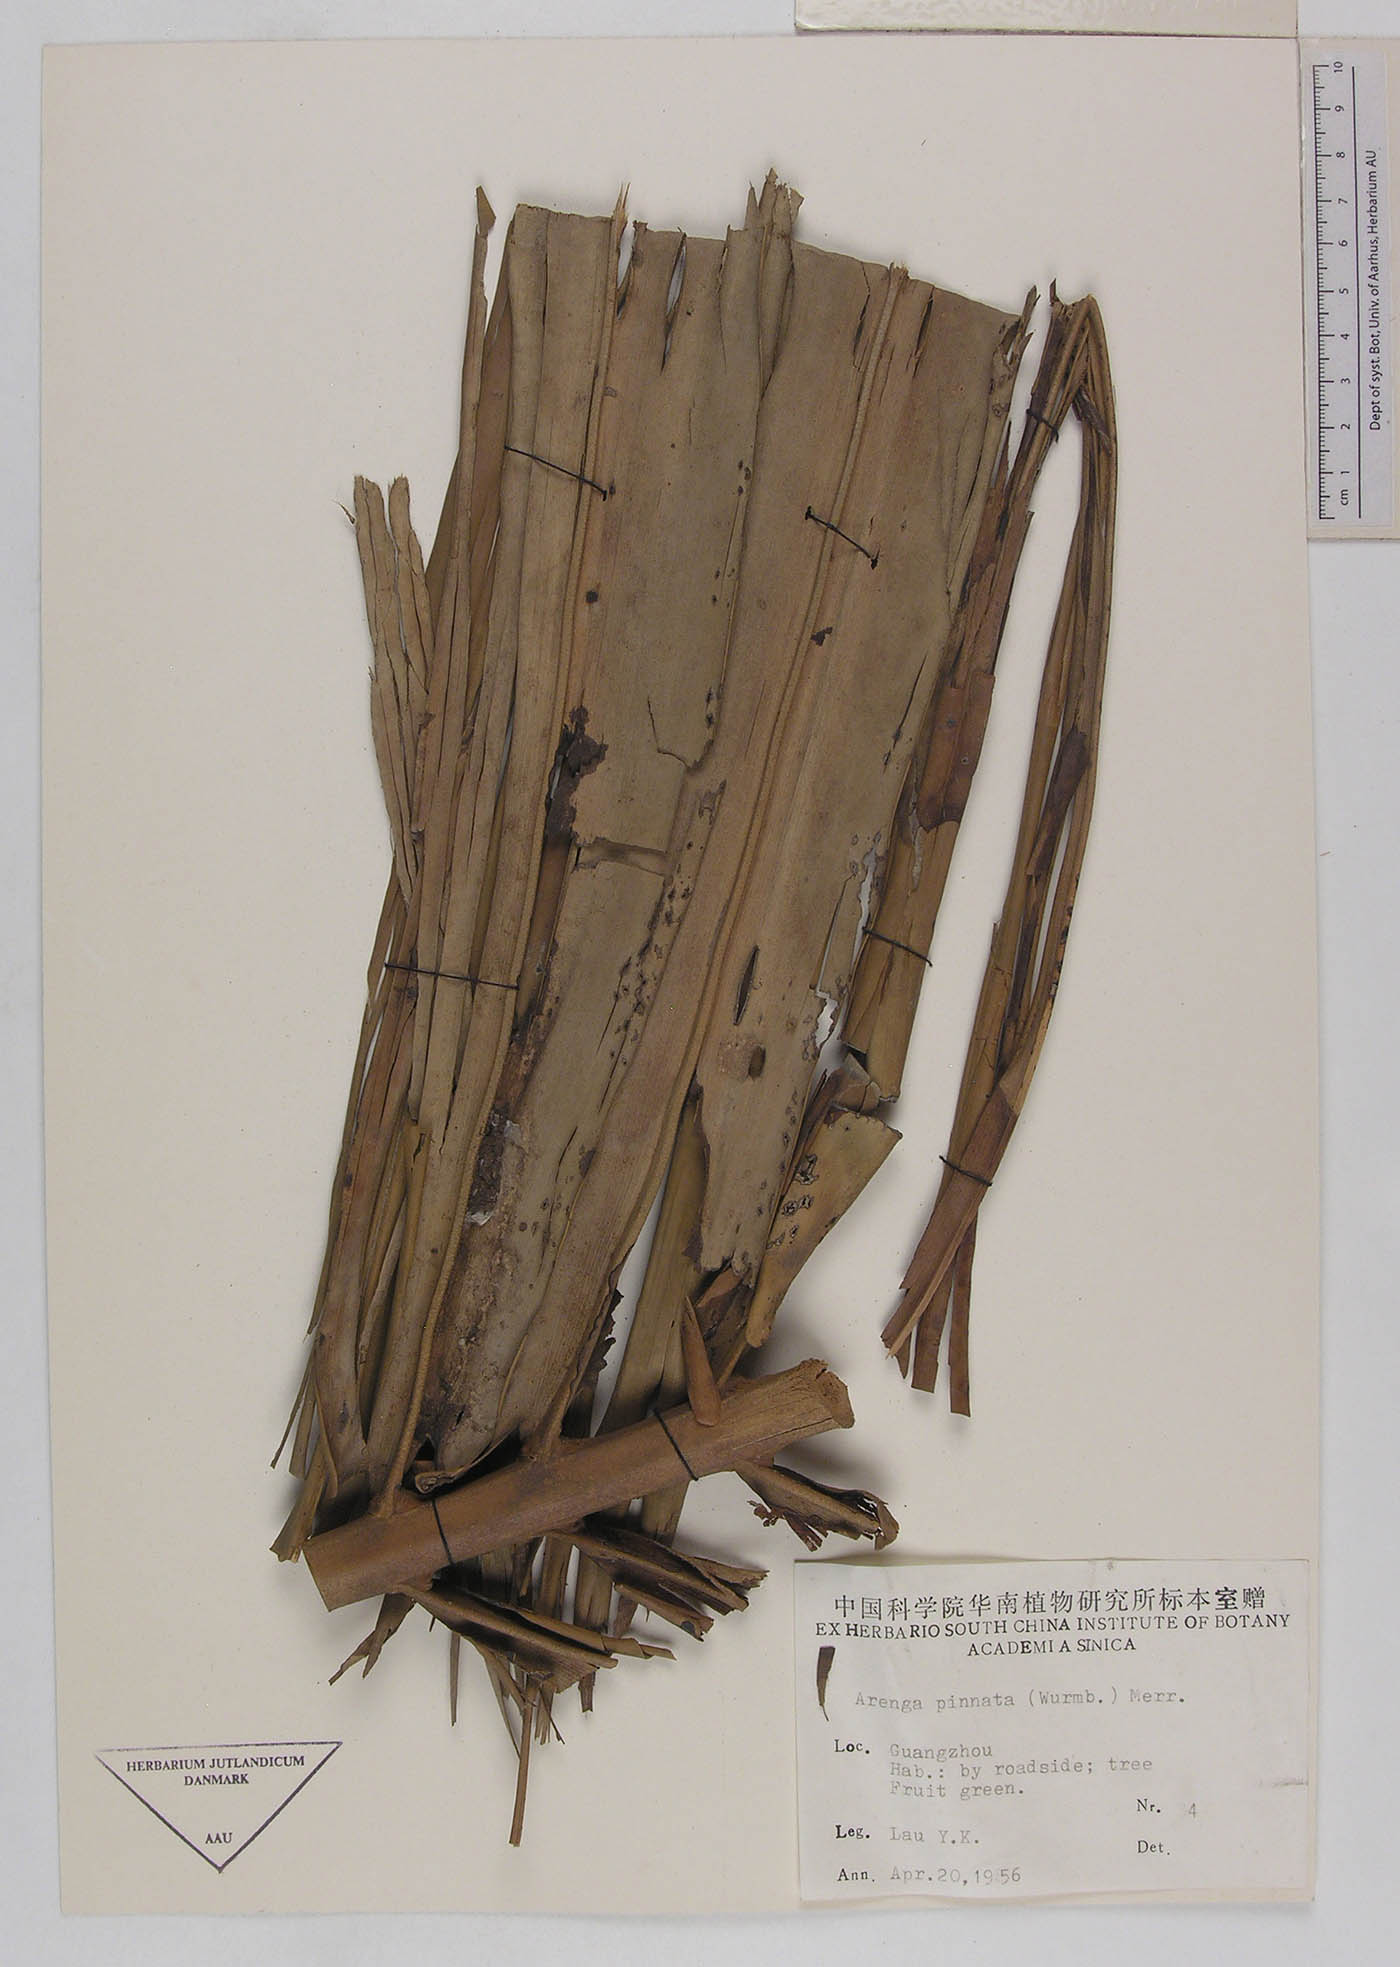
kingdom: Plantae
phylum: Tracheophyta
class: Liliopsida
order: Arecales
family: Arecaceae
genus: Arenga
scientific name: Arenga pinnata
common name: Black-fiber palm
